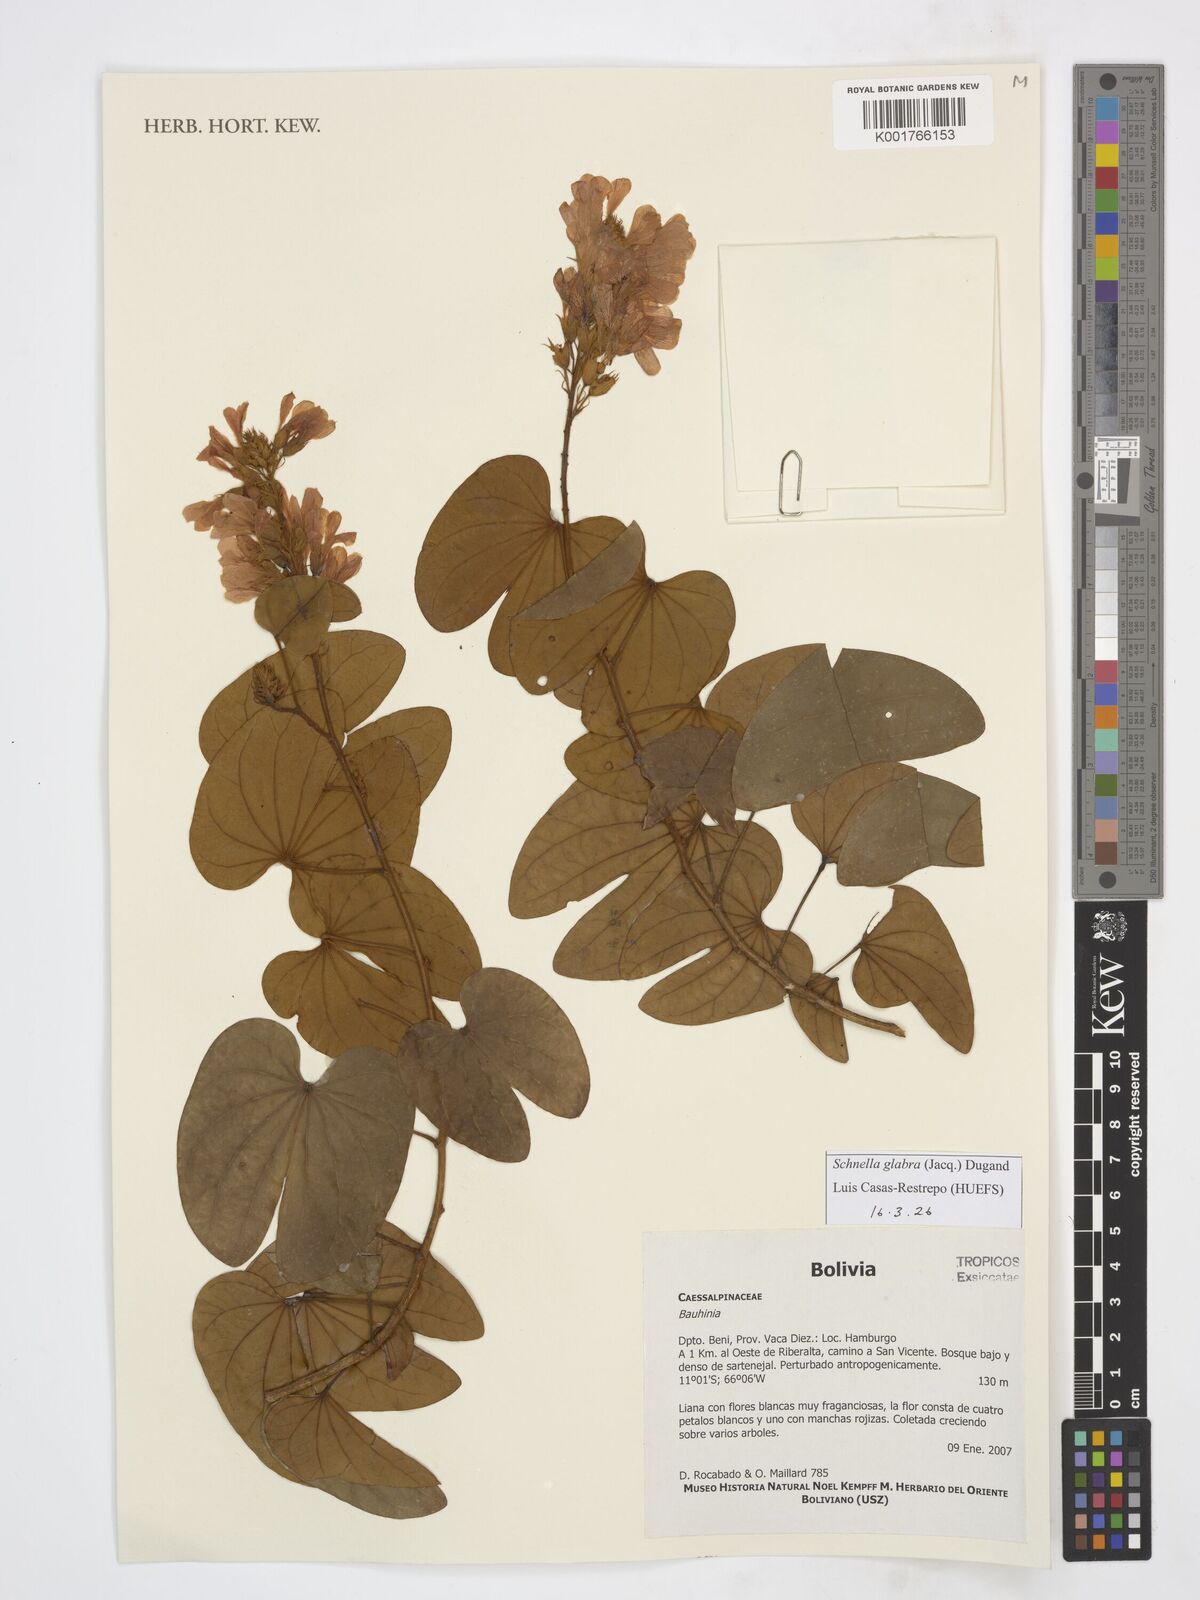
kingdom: Plantae
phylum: Tracheophyta
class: Magnoliopsida
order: Fabales
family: Fabaceae
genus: Schnella
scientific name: Schnella glabra
